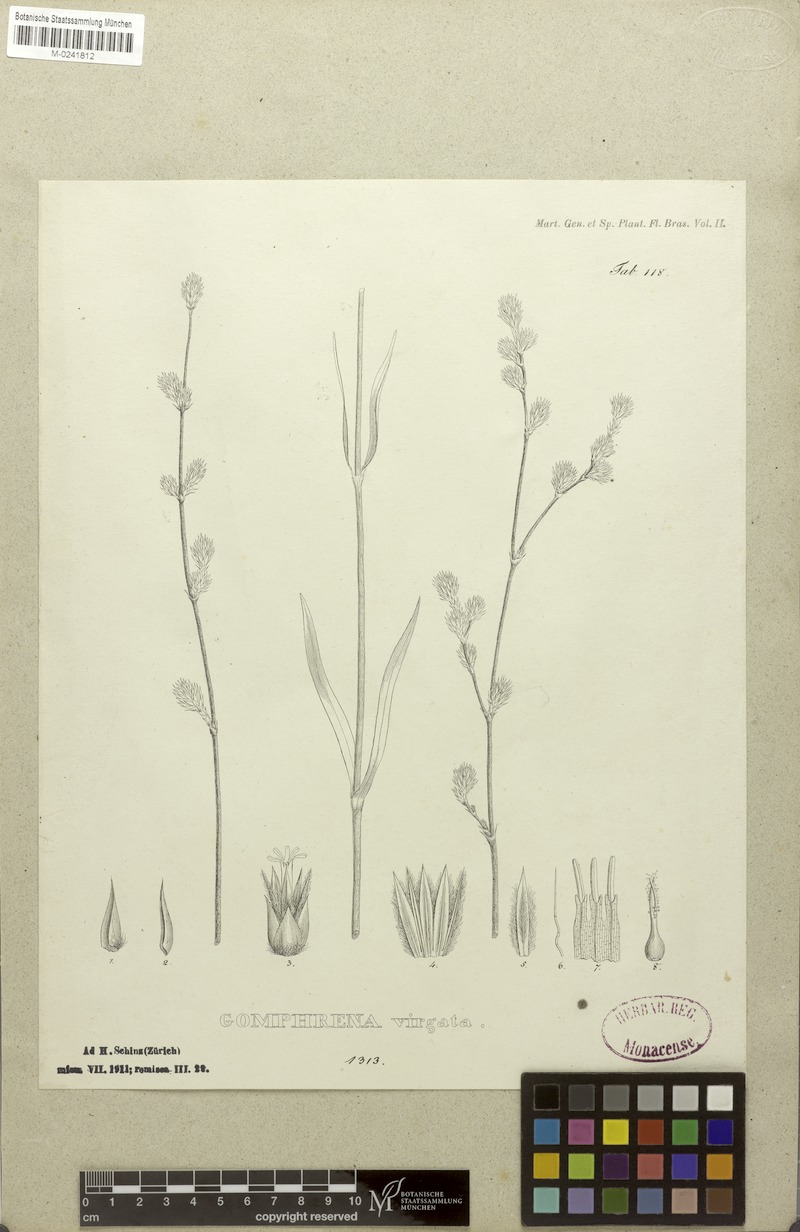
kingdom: Plantae
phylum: Tracheophyta
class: Magnoliopsida
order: Caryophyllales
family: Amaranthaceae
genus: Gomphrena
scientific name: Gomphrena virgata
